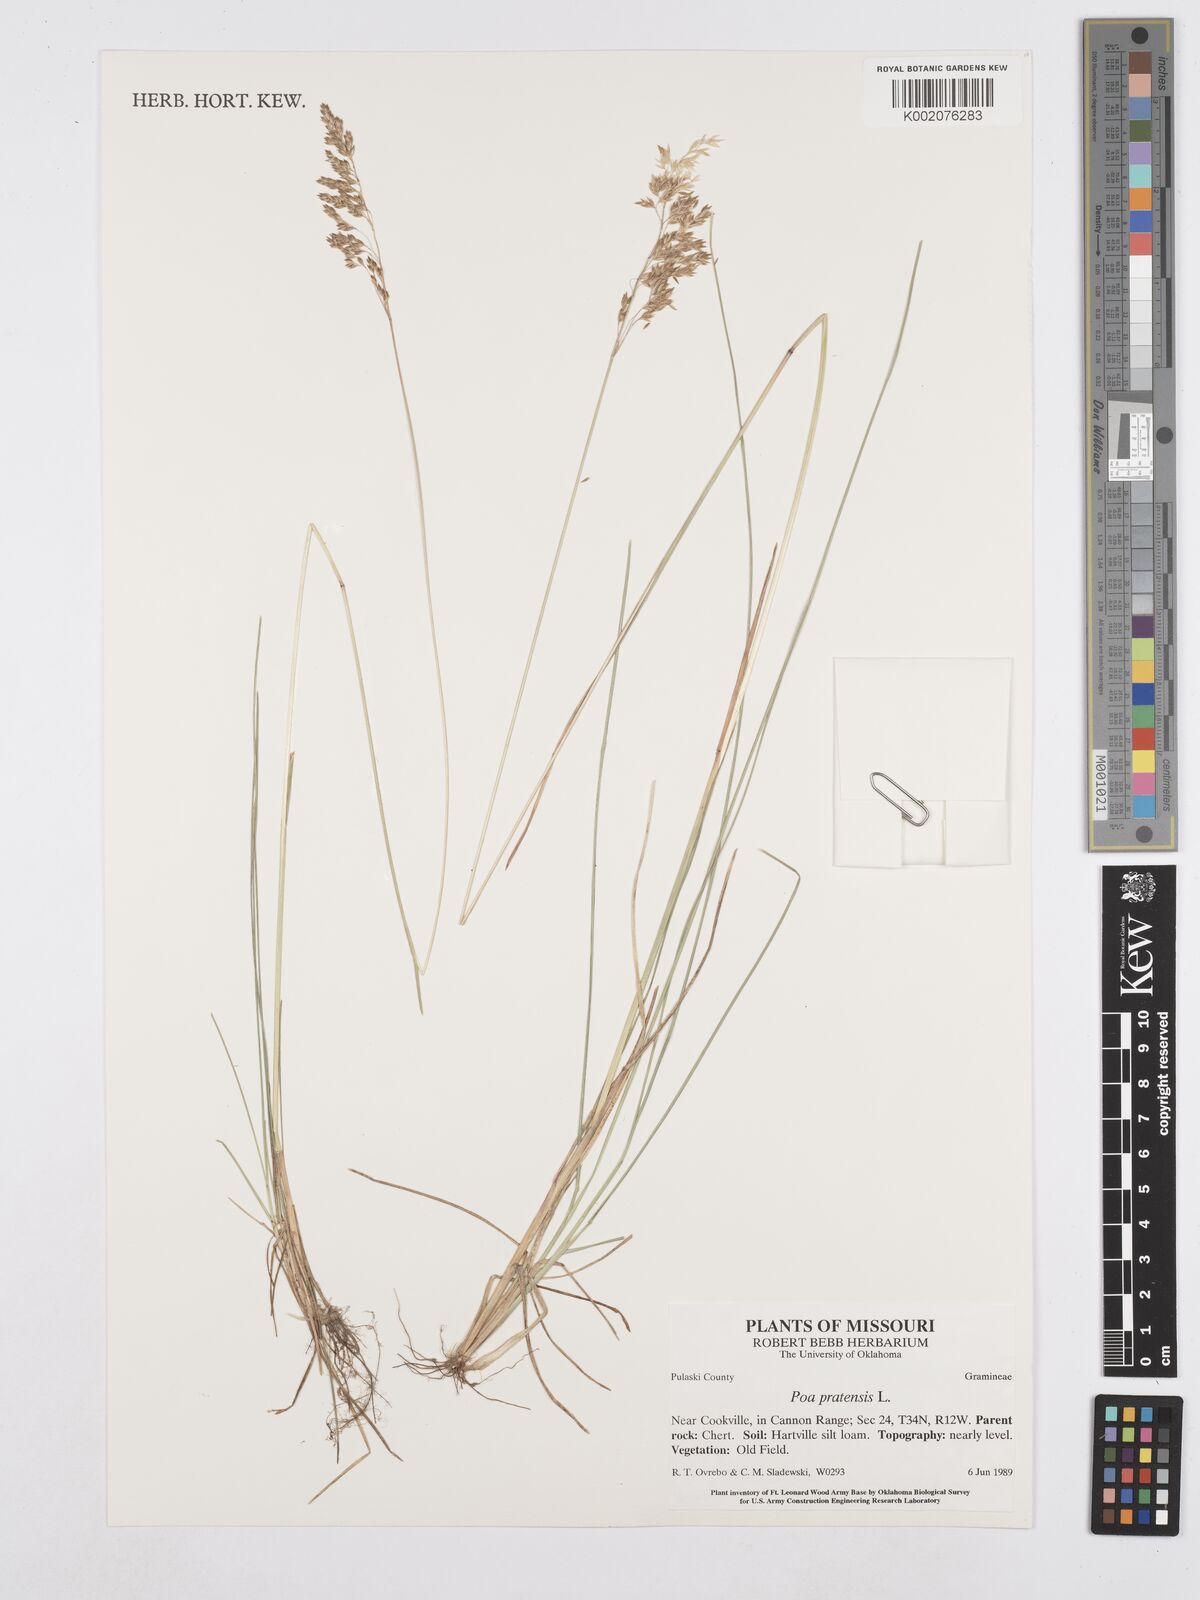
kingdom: Plantae
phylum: Tracheophyta
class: Liliopsida
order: Poales
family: Poaceae
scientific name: Poaceae
